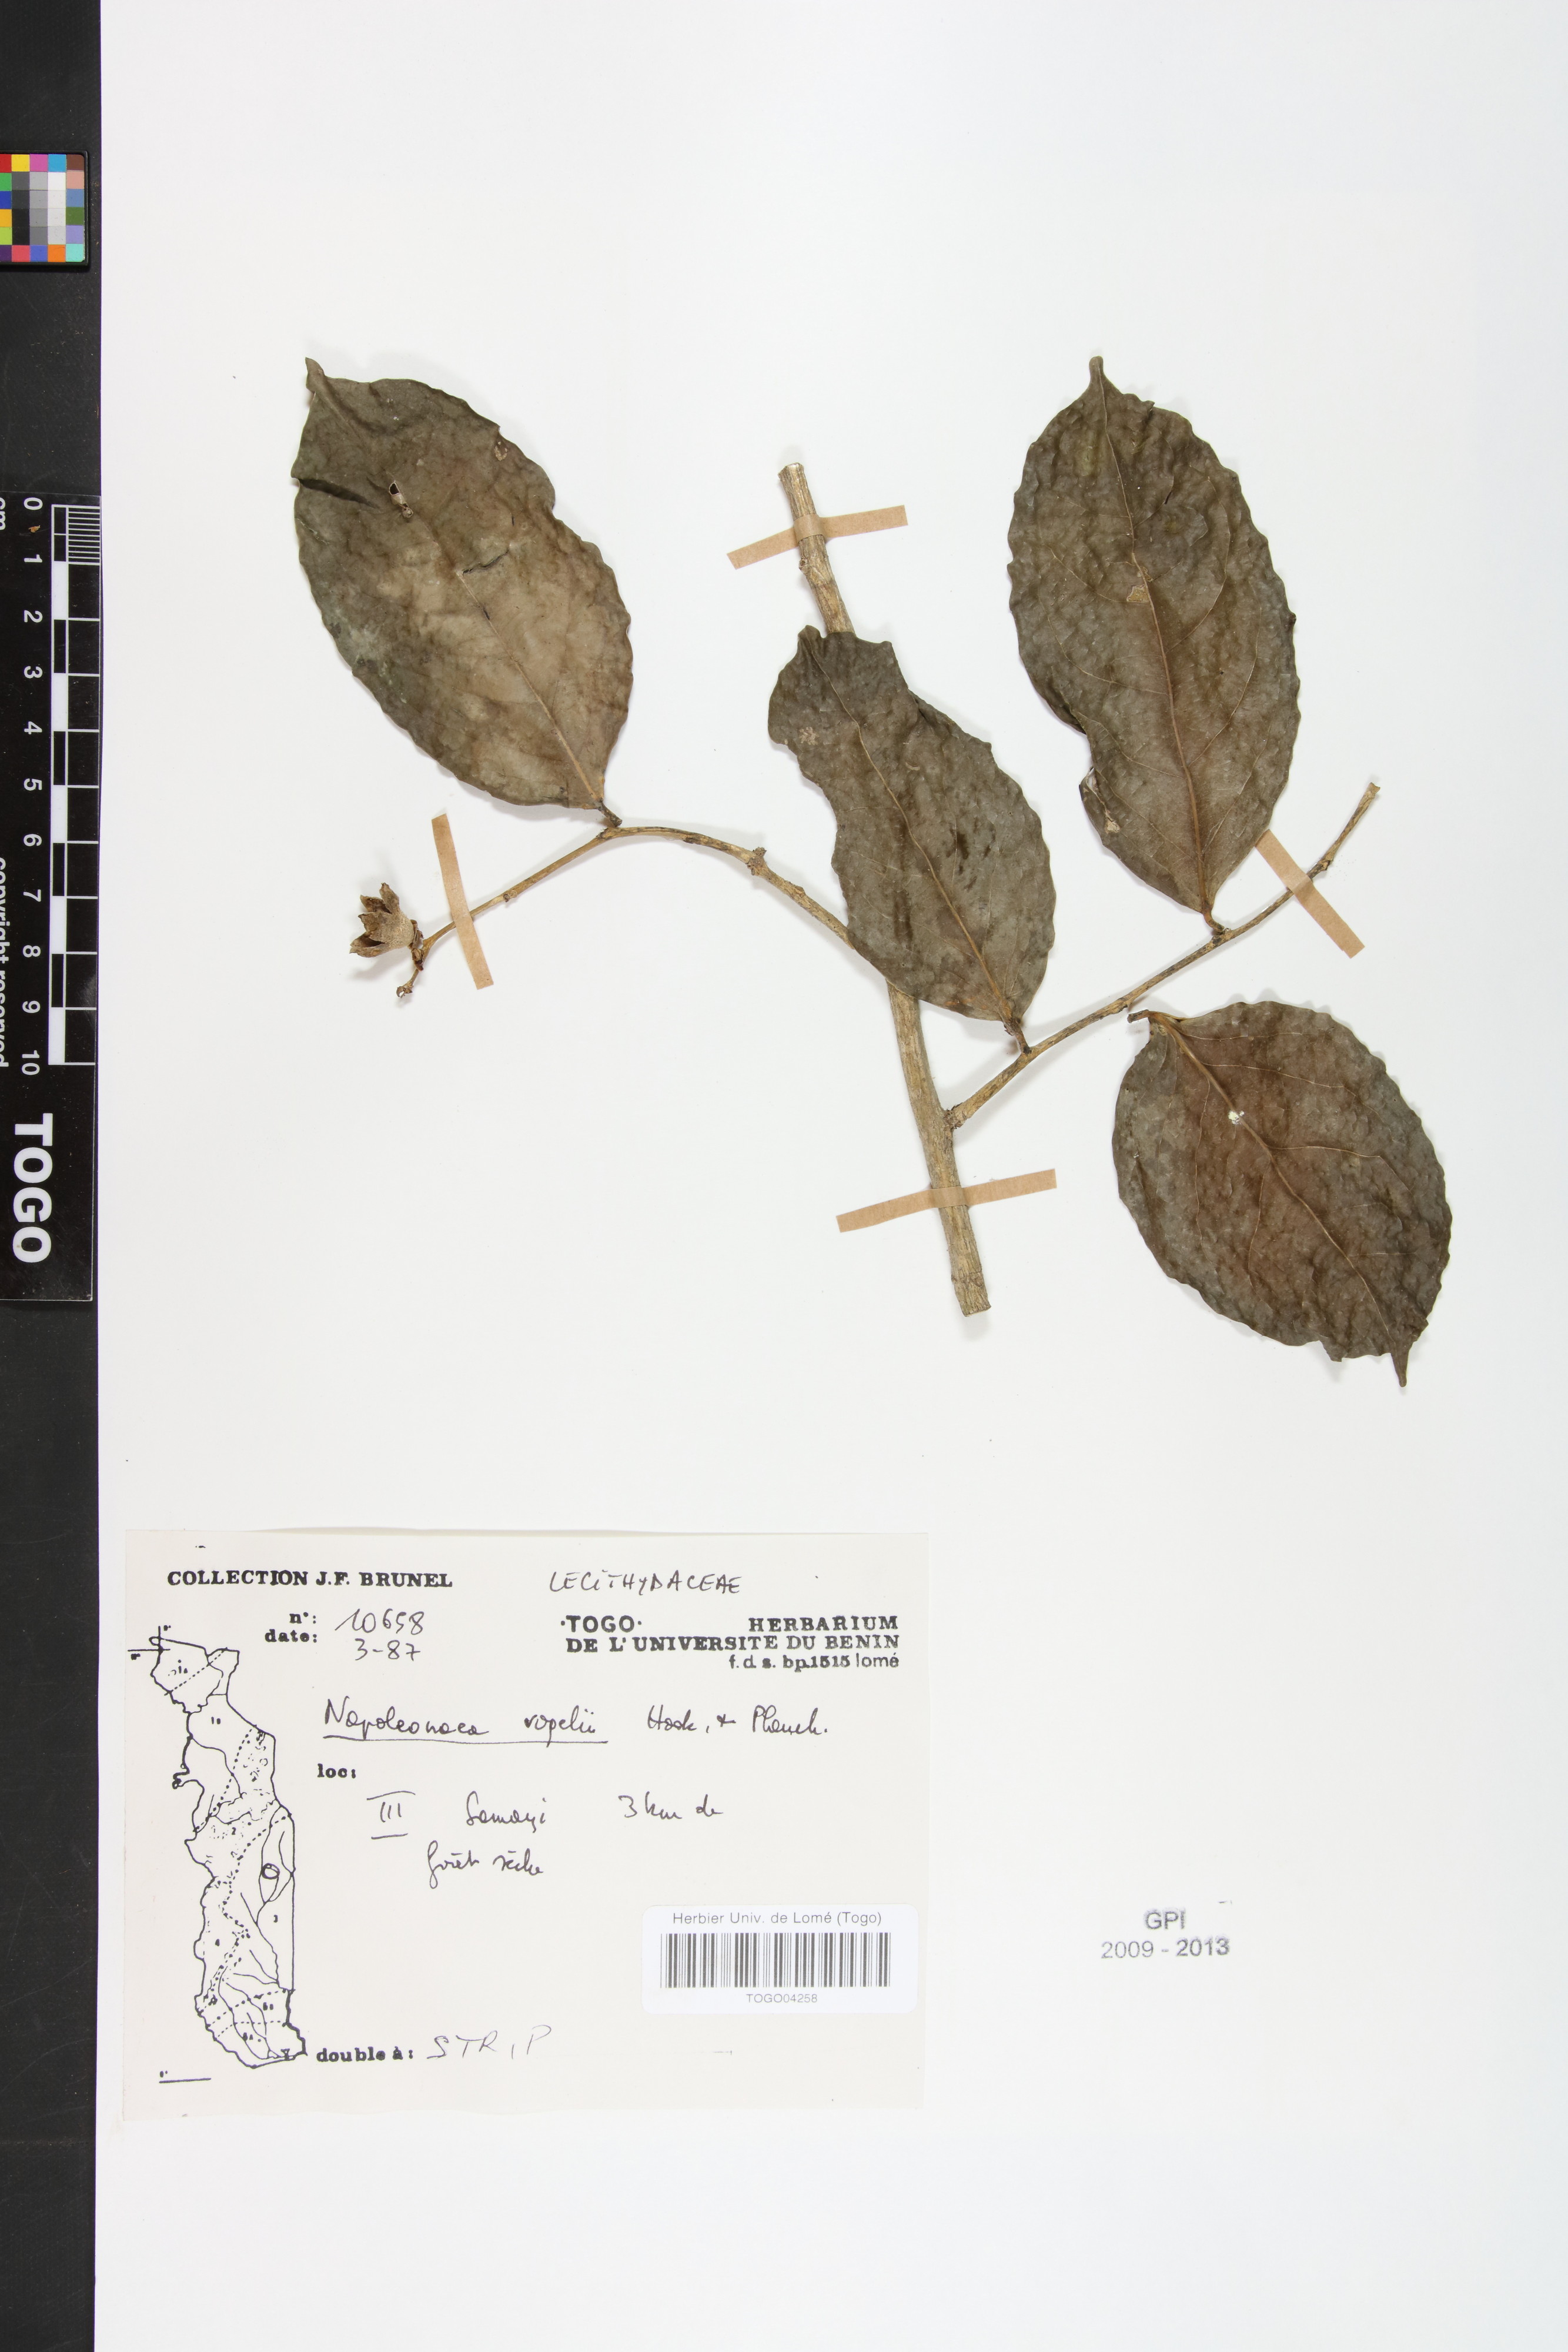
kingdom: Plantae
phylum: Tracheophyta
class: Magnoliopsida
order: Ericales
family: Lecythidaceae
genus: Napoleonaea
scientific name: Napoleonaea vogelii
